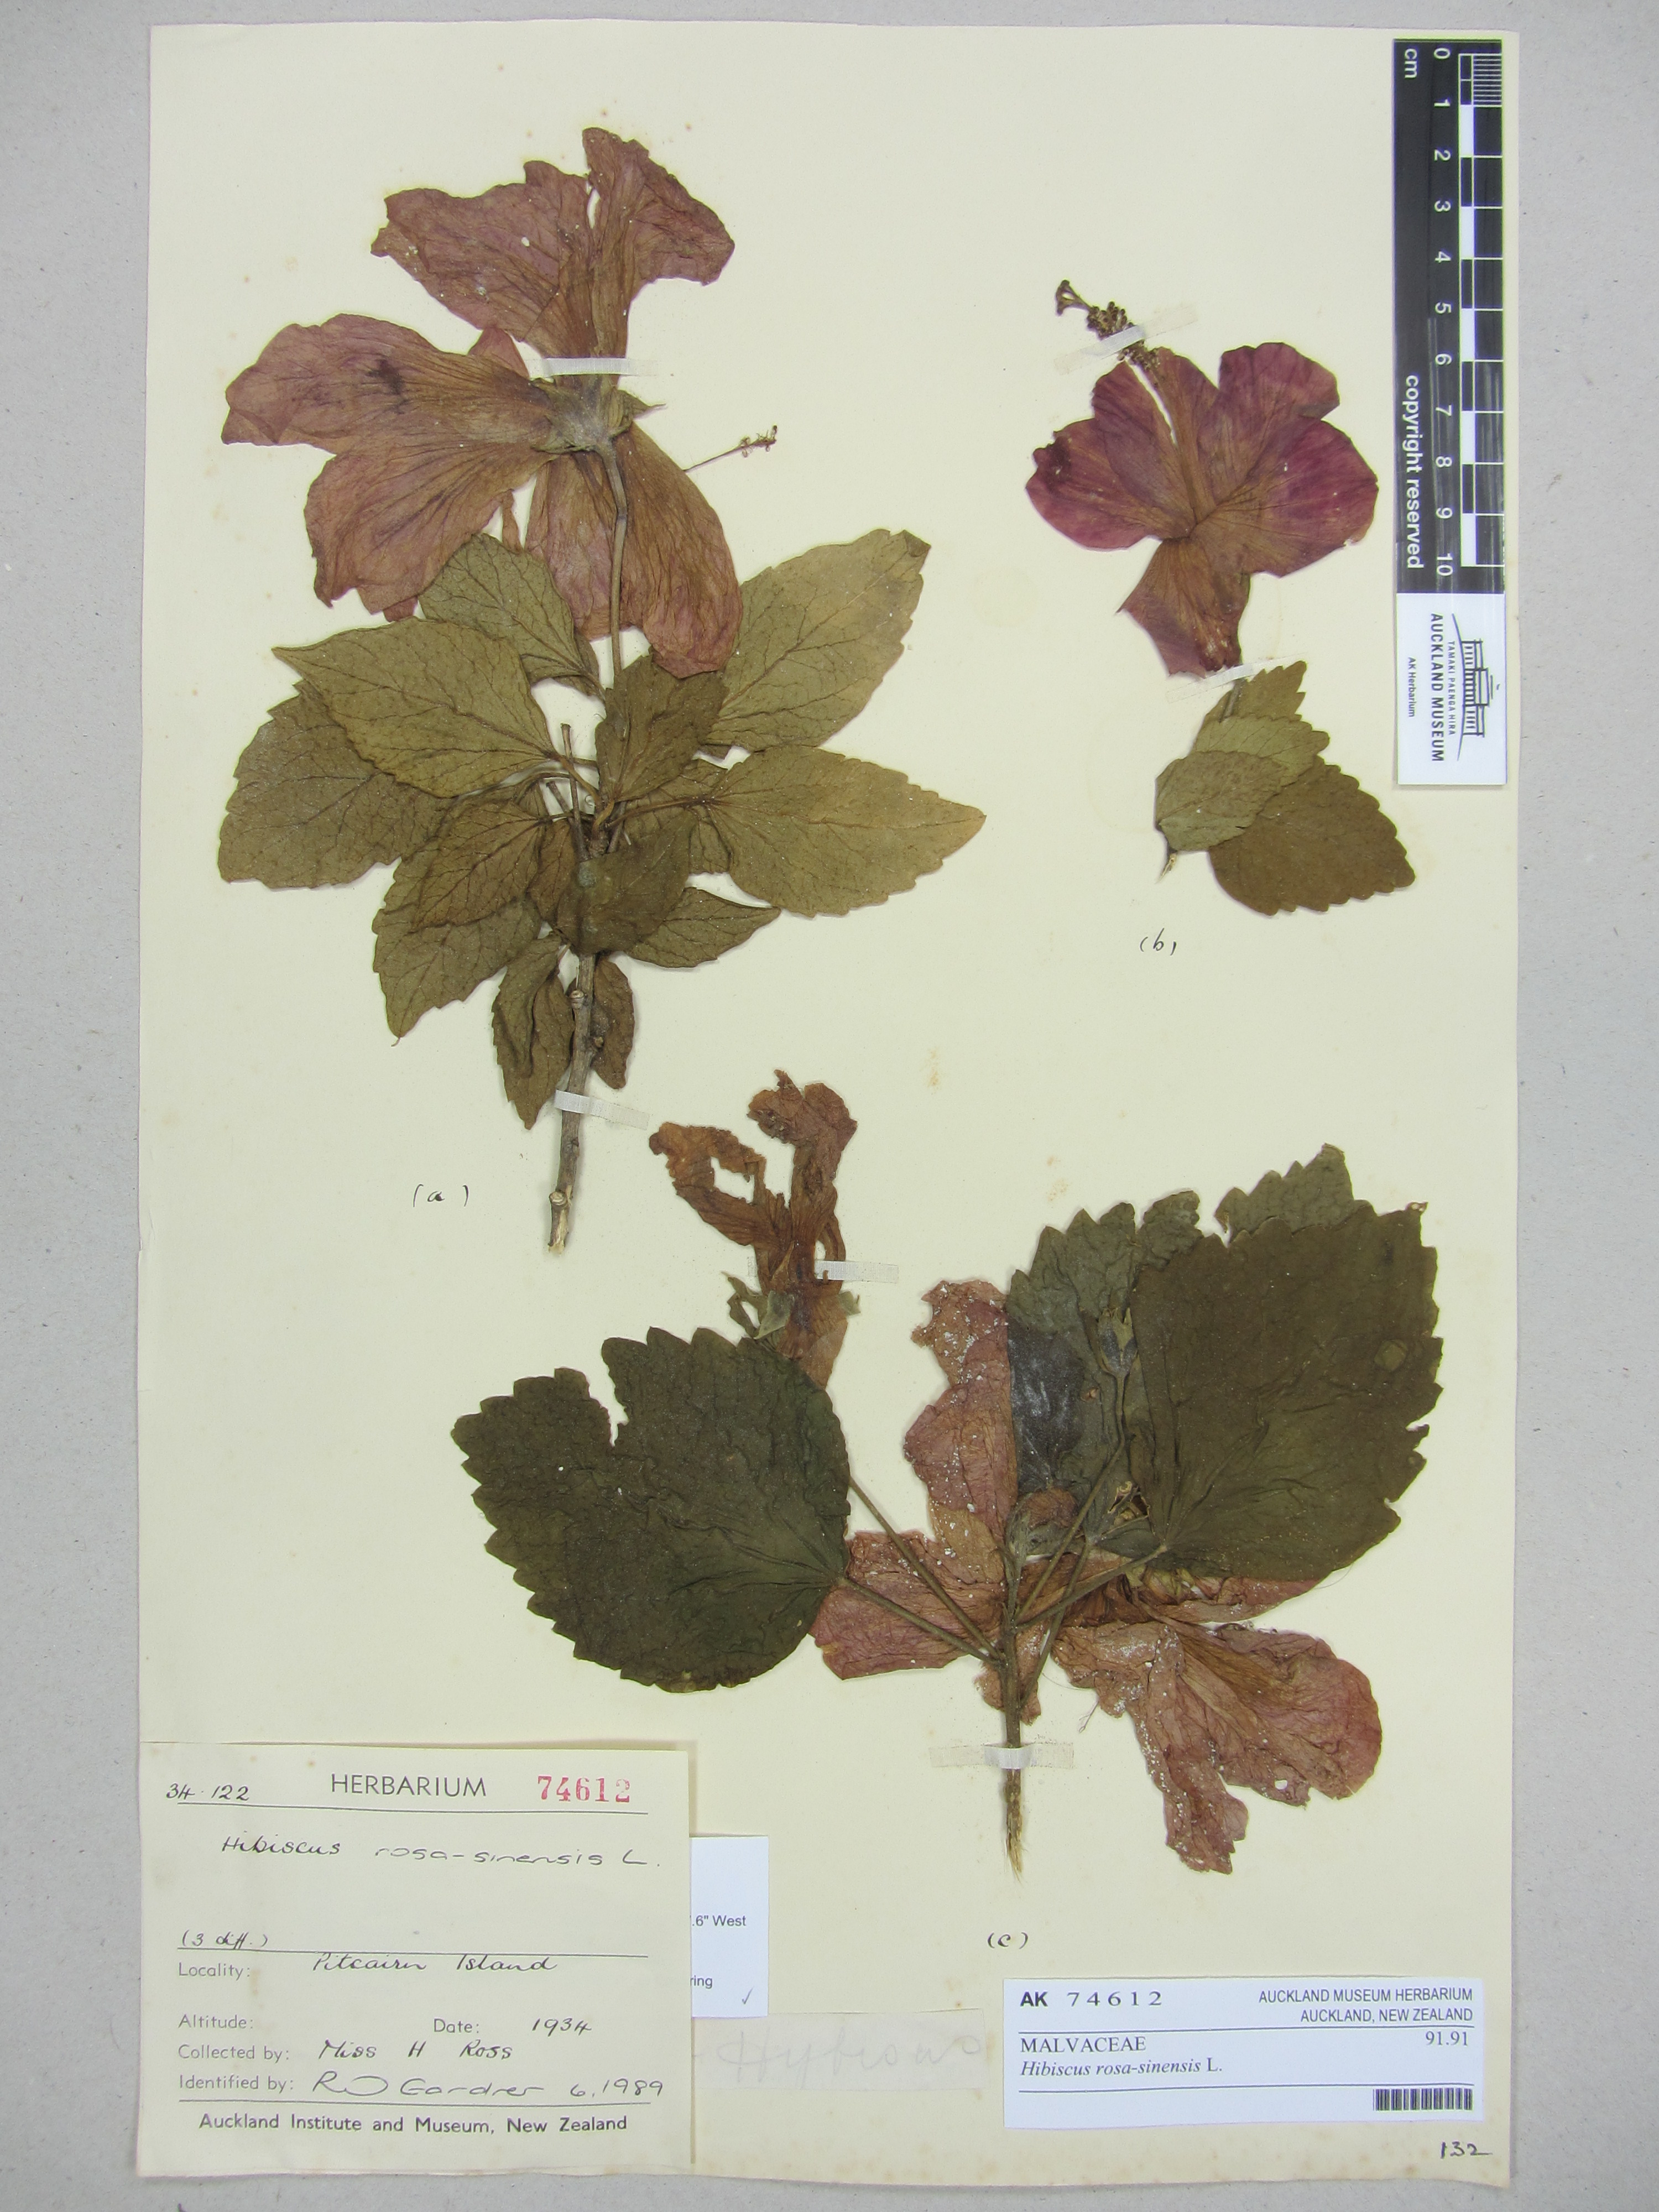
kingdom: Plantae
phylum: Tracheophyta
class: Magnoliopsida
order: Malvales
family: Malvaceae
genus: Hibiscus
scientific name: Hibiscus rosa-sinensis
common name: Hibiscus
